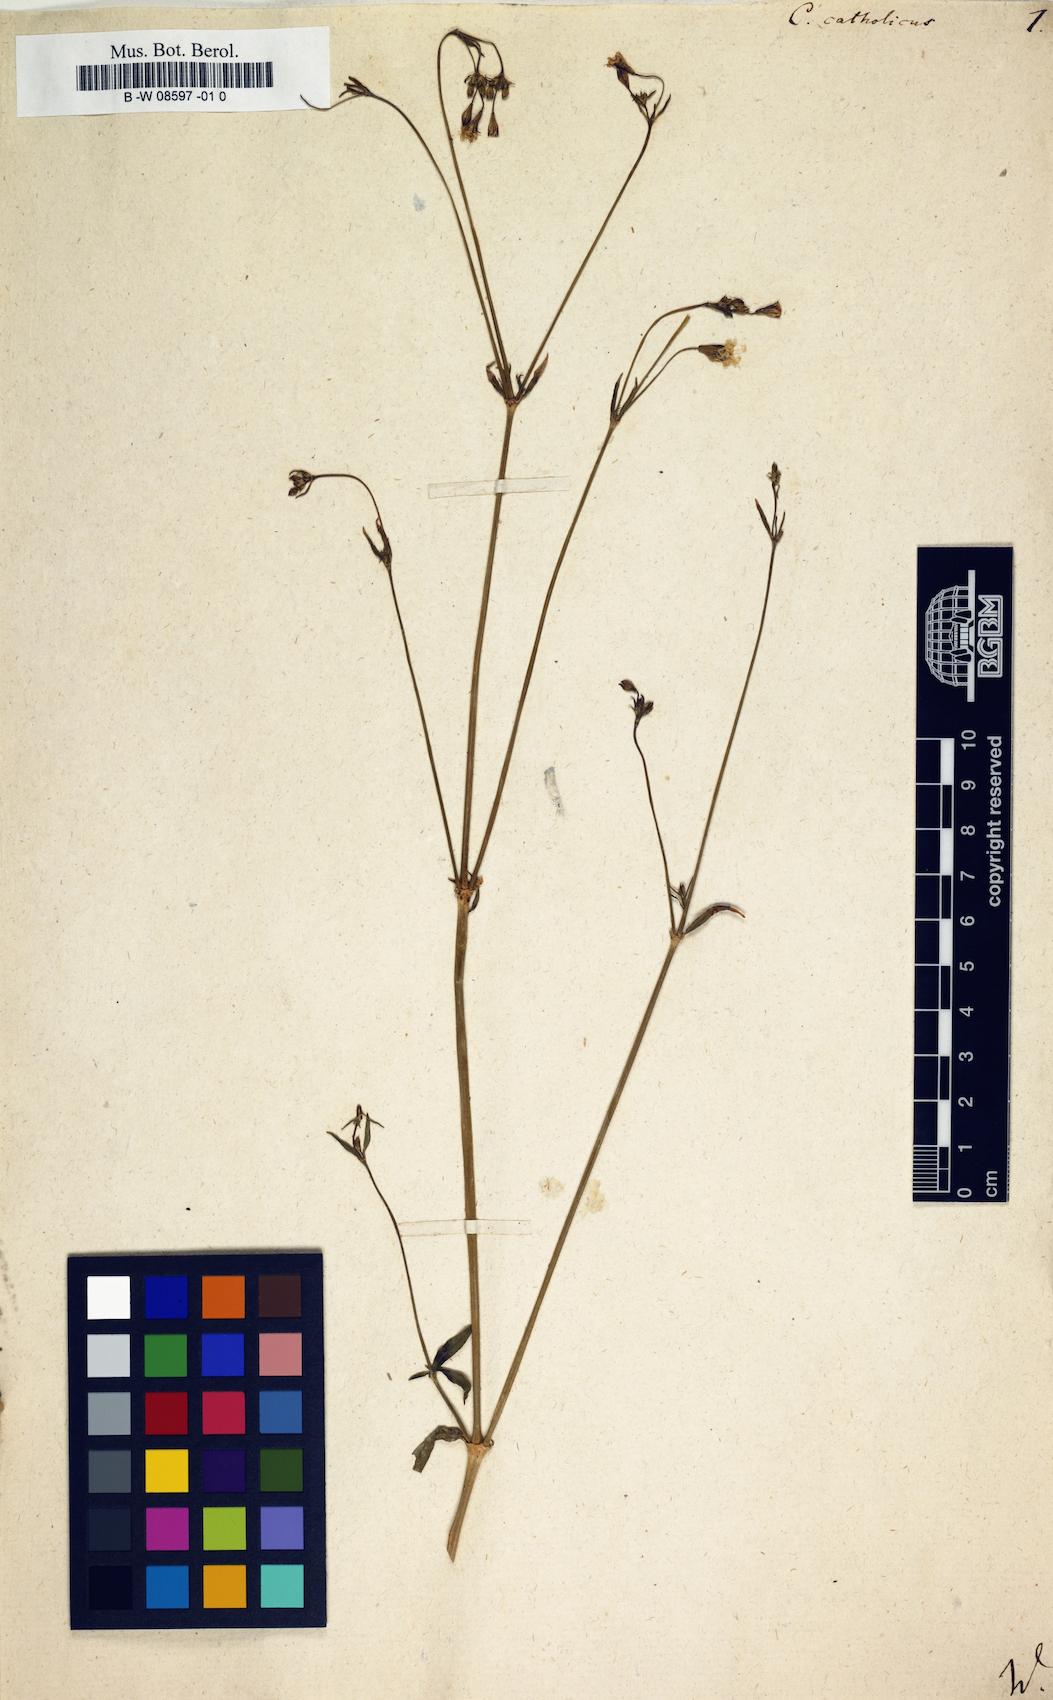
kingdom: Plantae
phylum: Tracheophyta
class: Magnoliopsida
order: Caryophyllales
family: Caryophyllaceae
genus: Silene
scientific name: Silene
